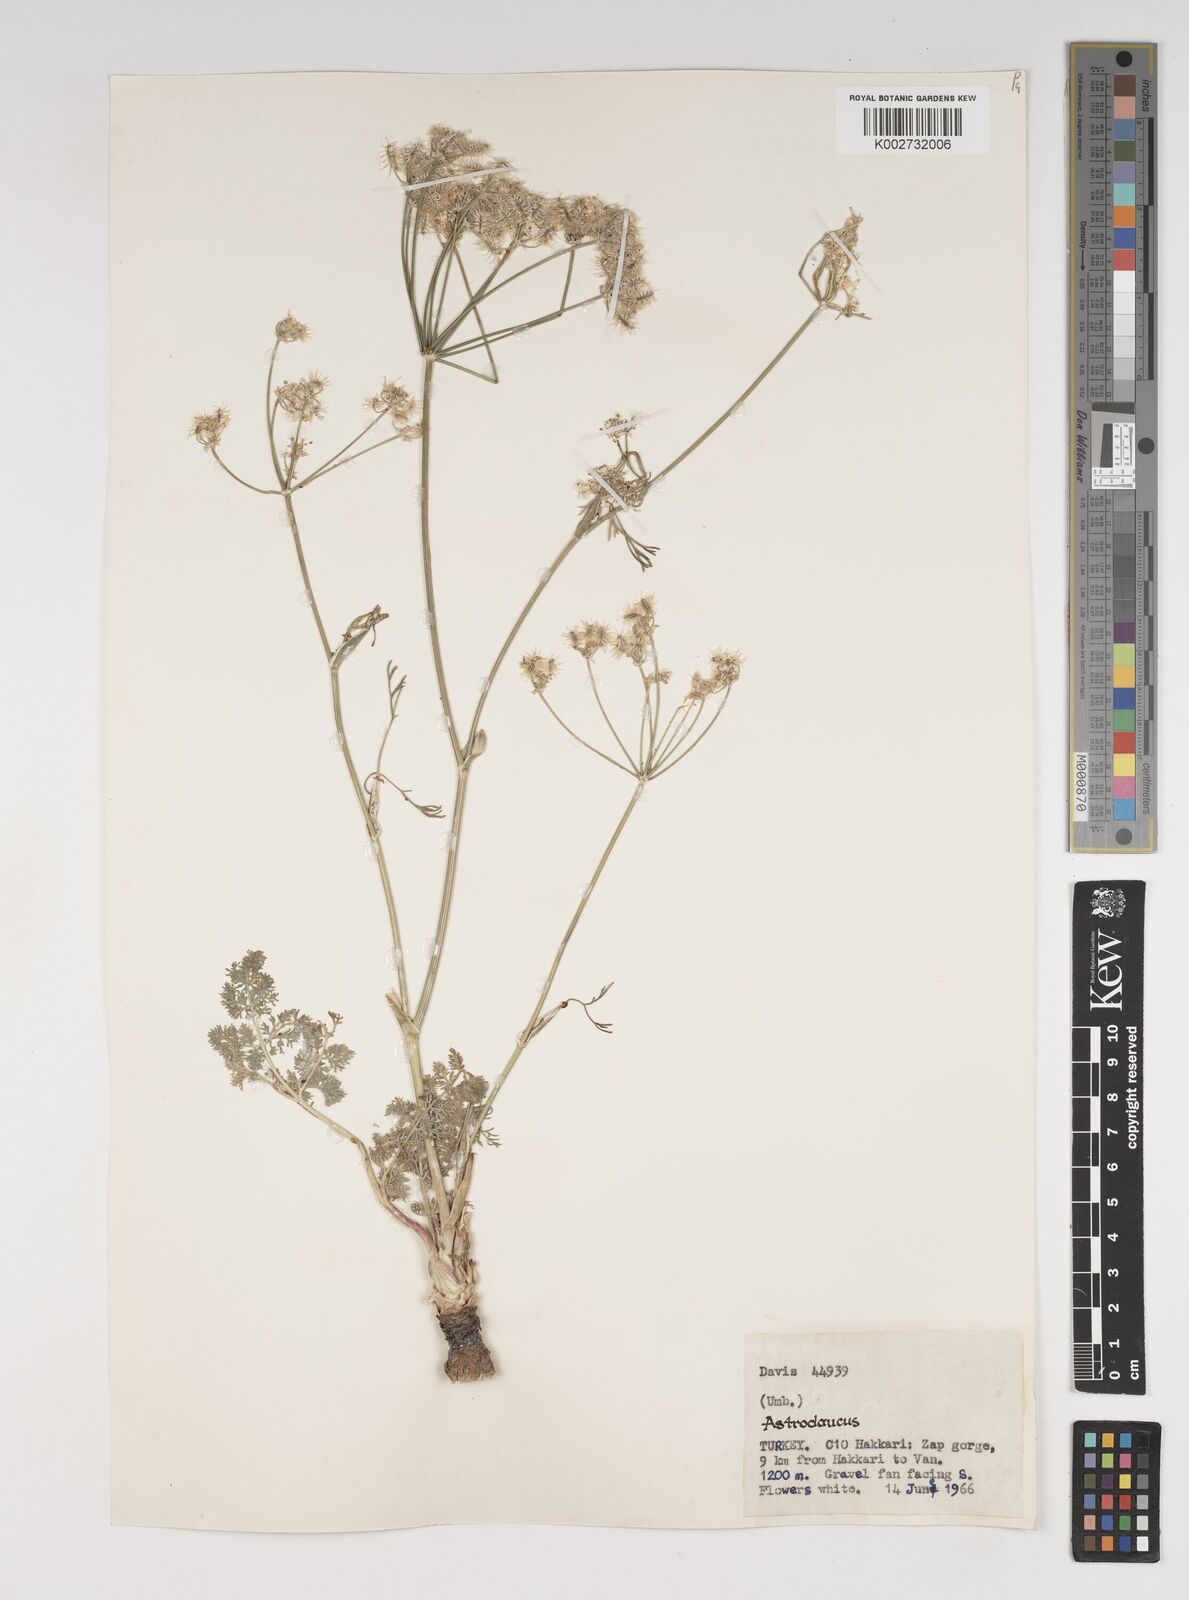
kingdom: Plantae
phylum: Tracheophyta
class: Magnoliopsida
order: Apiales
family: Apiaceae
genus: Astrodaucus
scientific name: Astrodaucus
